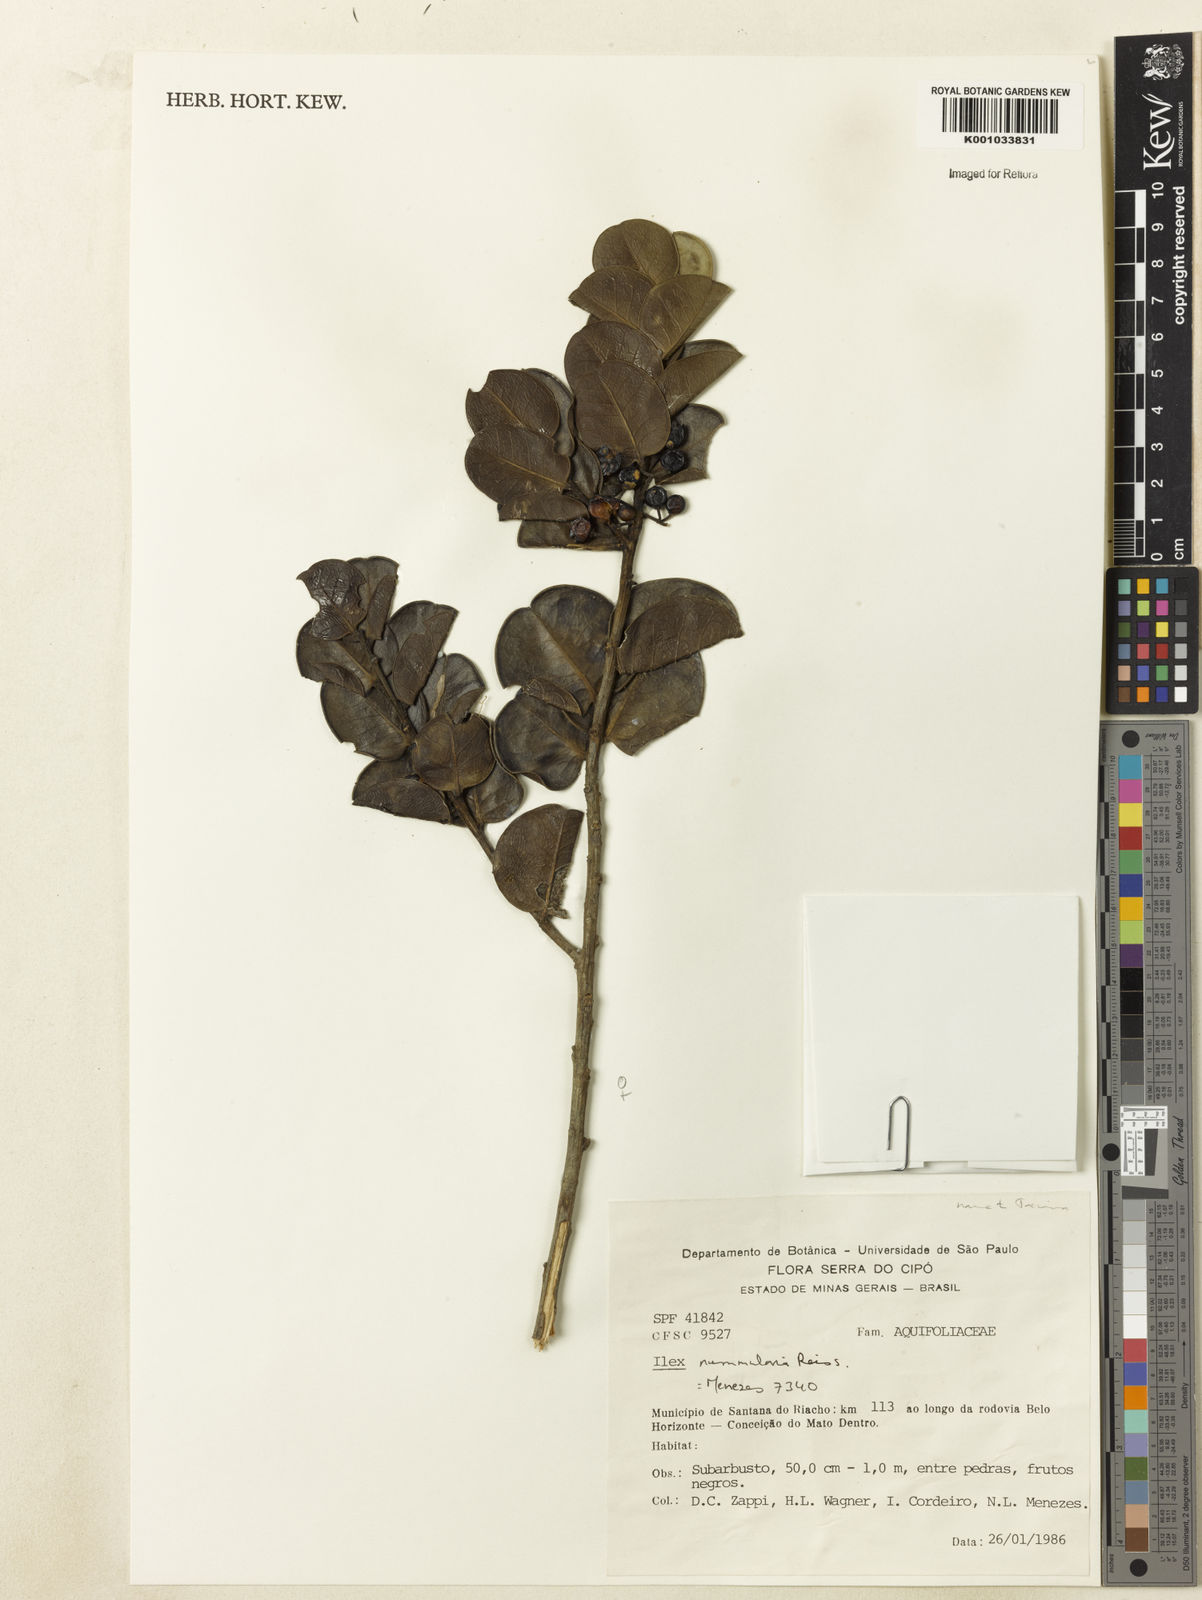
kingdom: Plantae
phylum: Tracheophyta
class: Magnoliopsida
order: Aquifoliales
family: Aquifoliaceae
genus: Ilex
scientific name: Ilex nummularia
